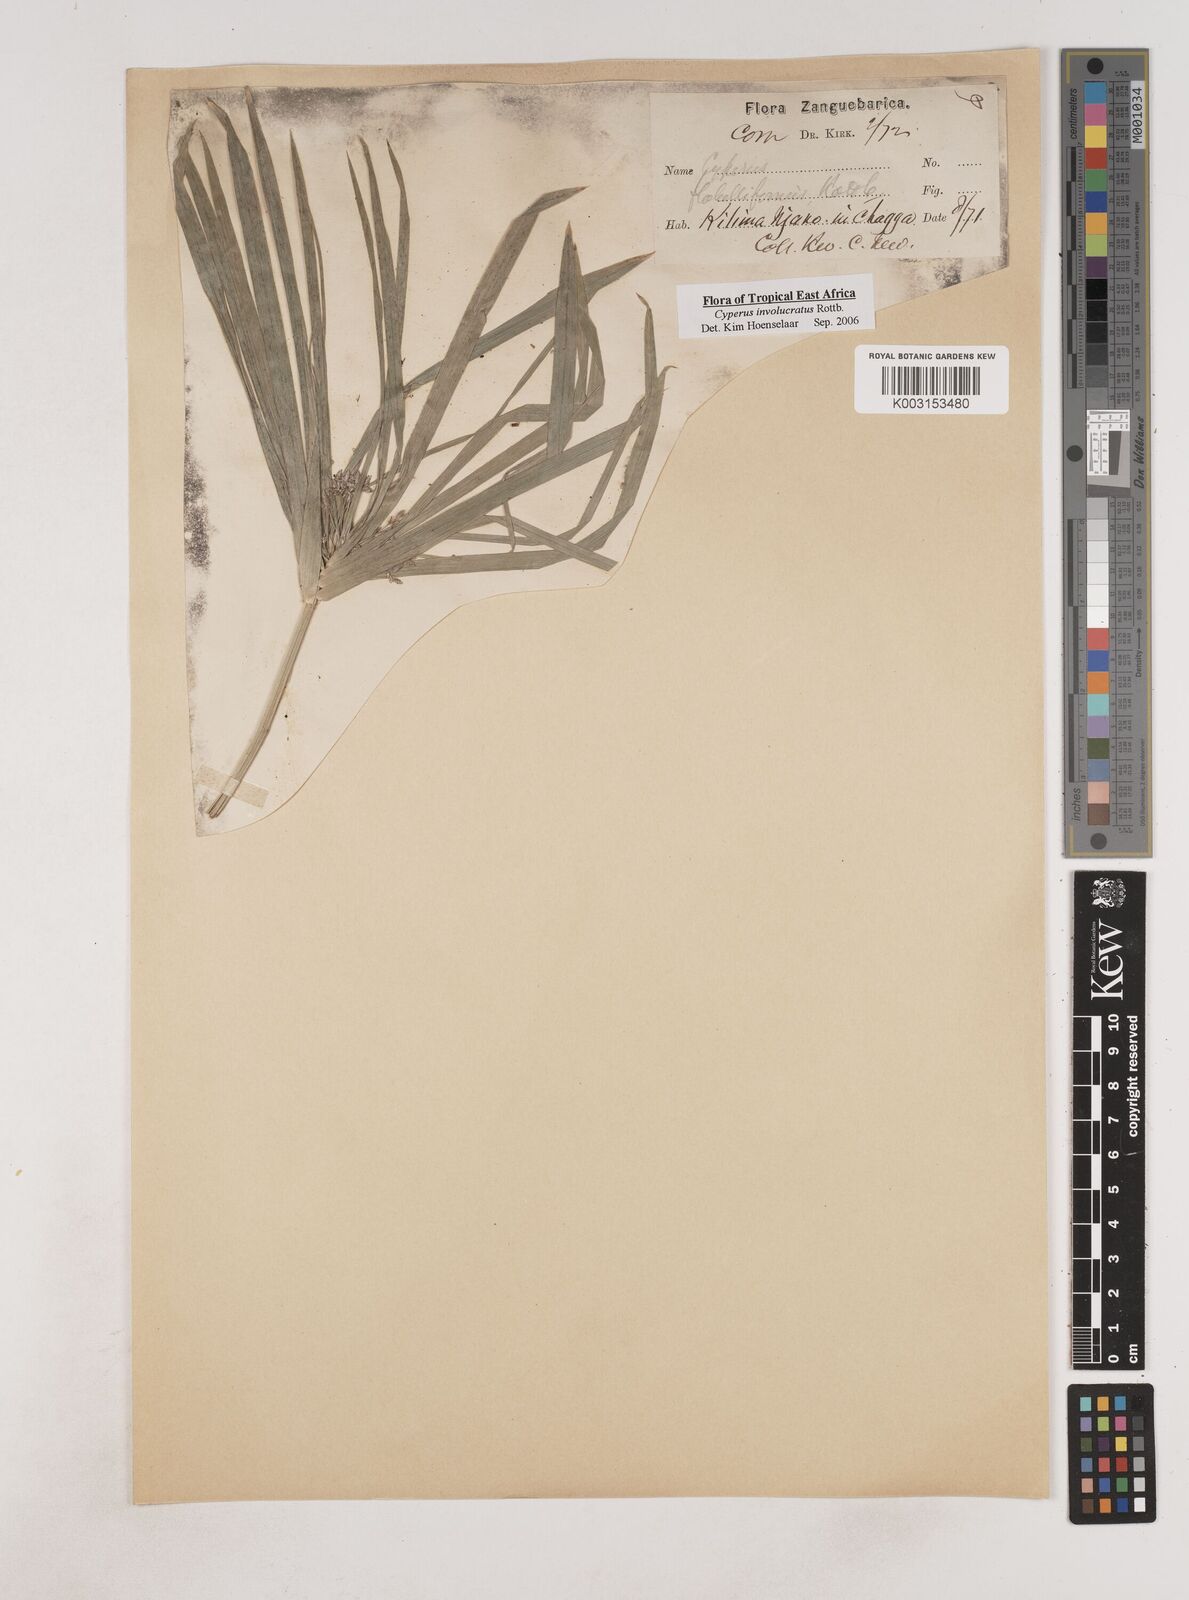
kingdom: Plantae
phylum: Tracheophyta
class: Liliopsida
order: Poales
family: Cyperaceae
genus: Cyperus
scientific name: Cyperus alternifolius
